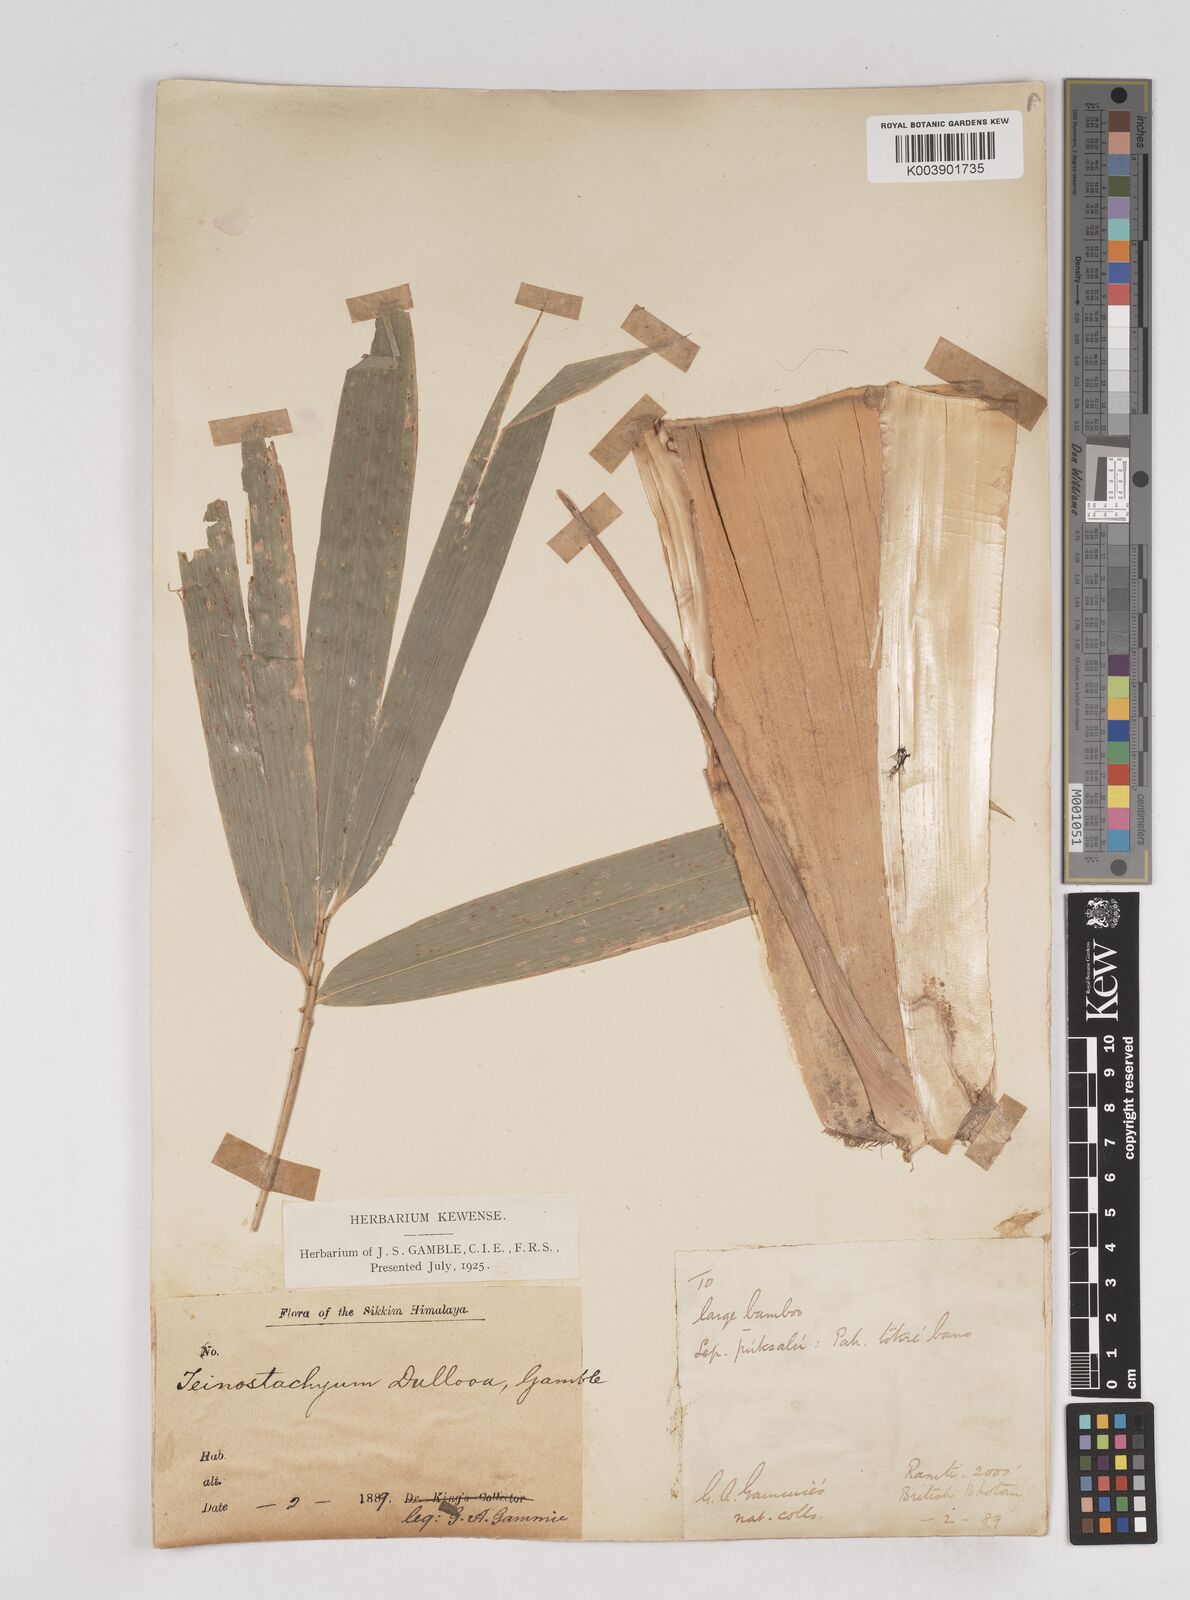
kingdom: Plantae
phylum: Tracheophyta
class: Liliopsida
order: Poales
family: Poaceae
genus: Schizostachyum
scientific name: Schizostachyum dullooa
